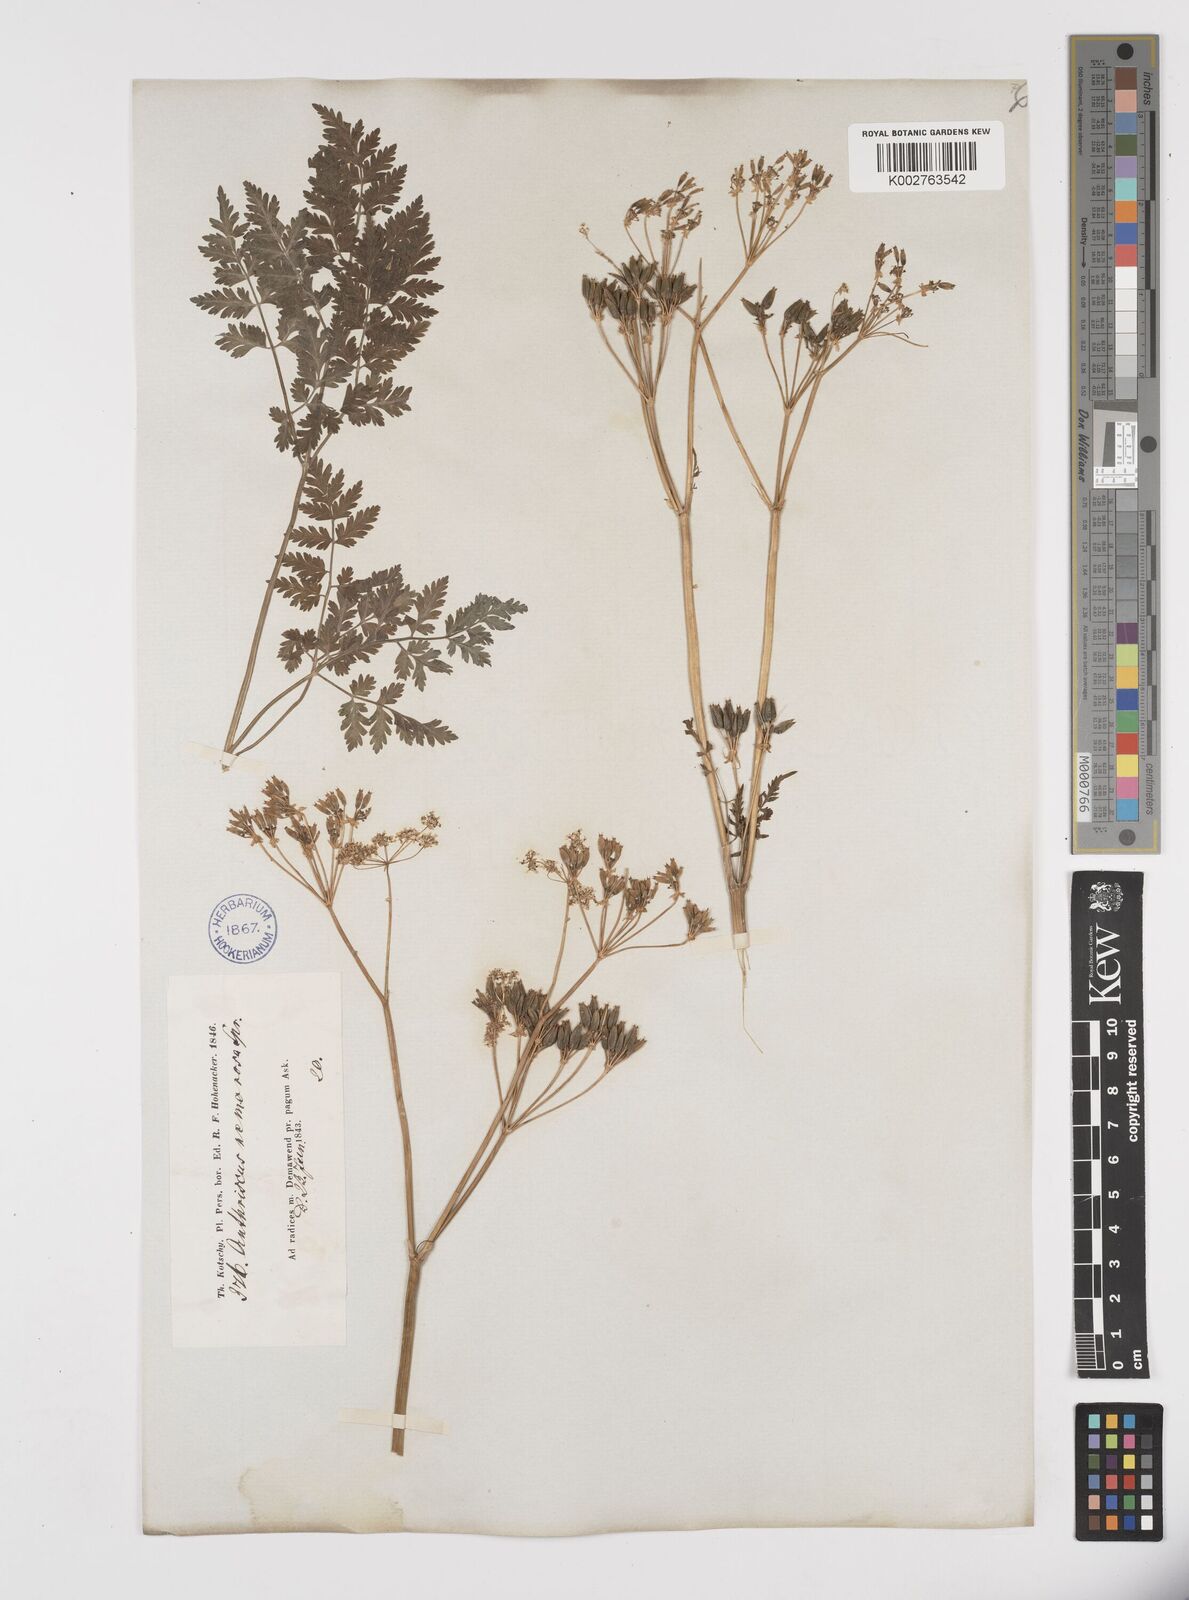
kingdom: Plantae
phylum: Tracheophyta
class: Magnoliopsida
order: Apiales
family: Apiaceae
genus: Anthriscus
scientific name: Anthriscus sylvestris
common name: Cow parsley
